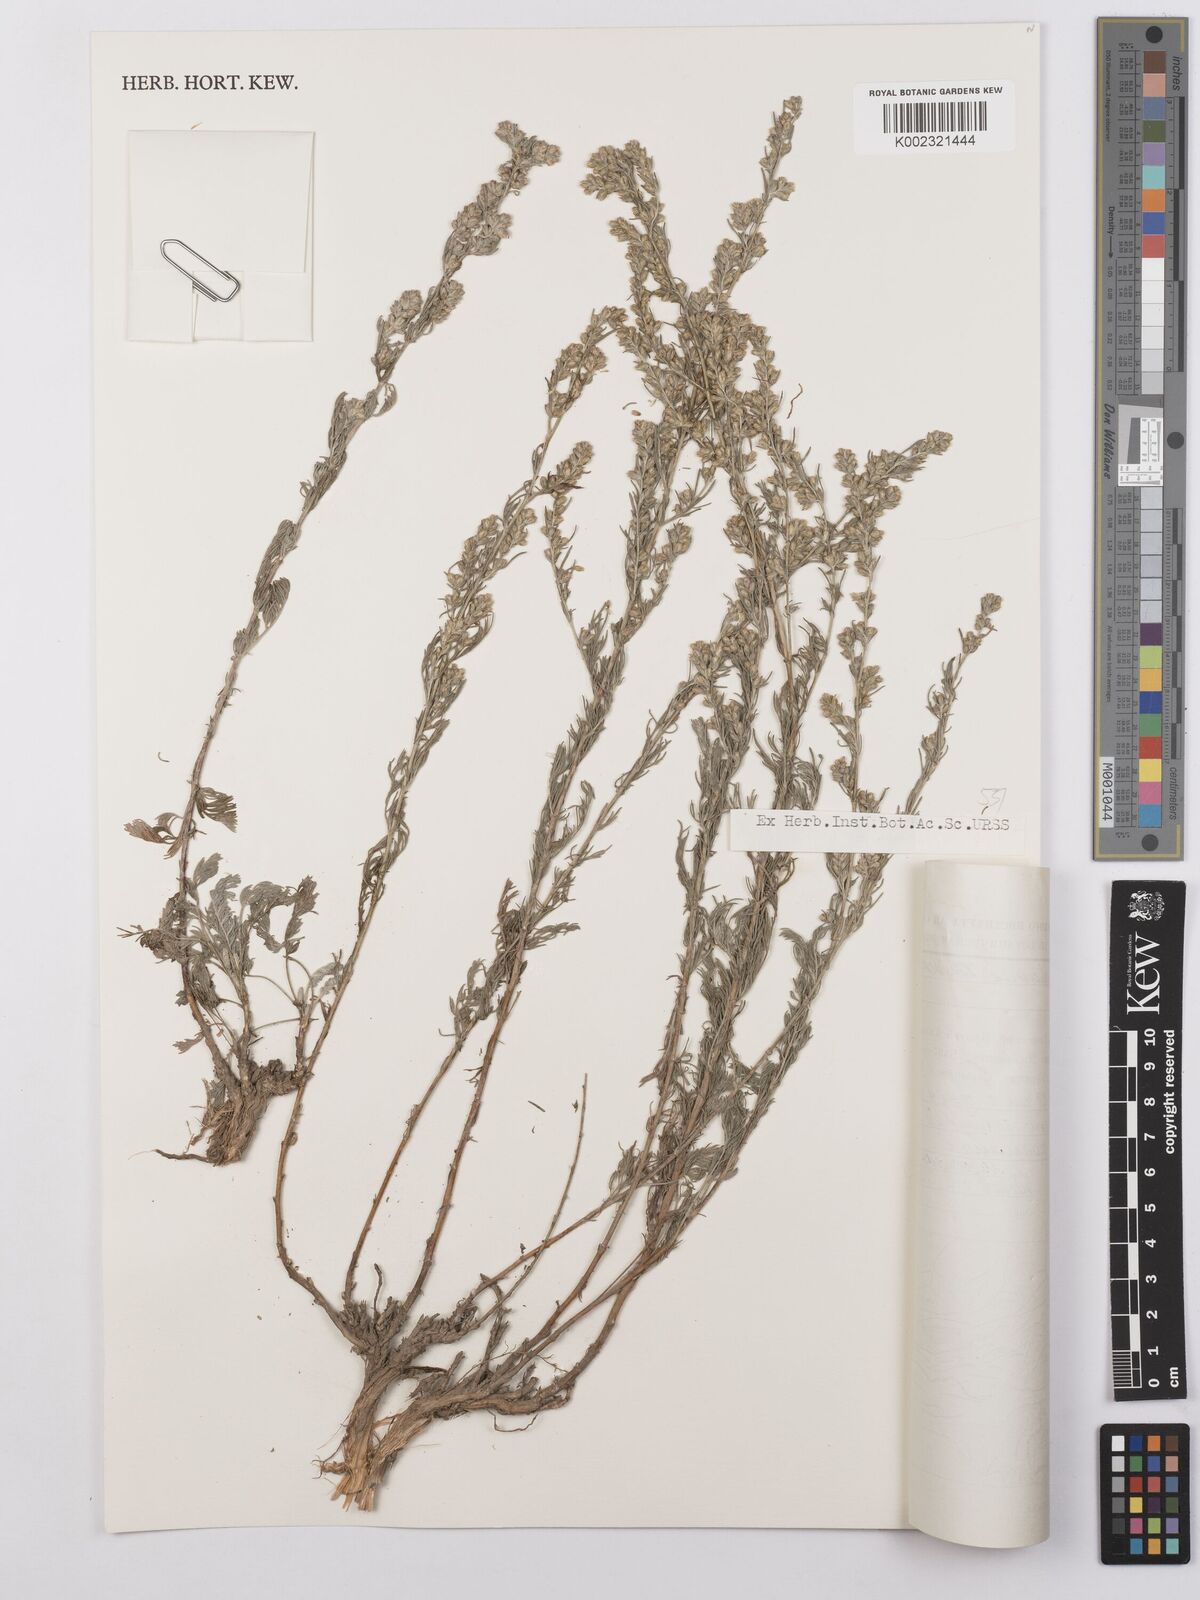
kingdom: Plantae
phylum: Tracheophyta
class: Magnoliopsida
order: Asterales
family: Asteraceae
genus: Artemisia
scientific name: Artemisia tianschanica
